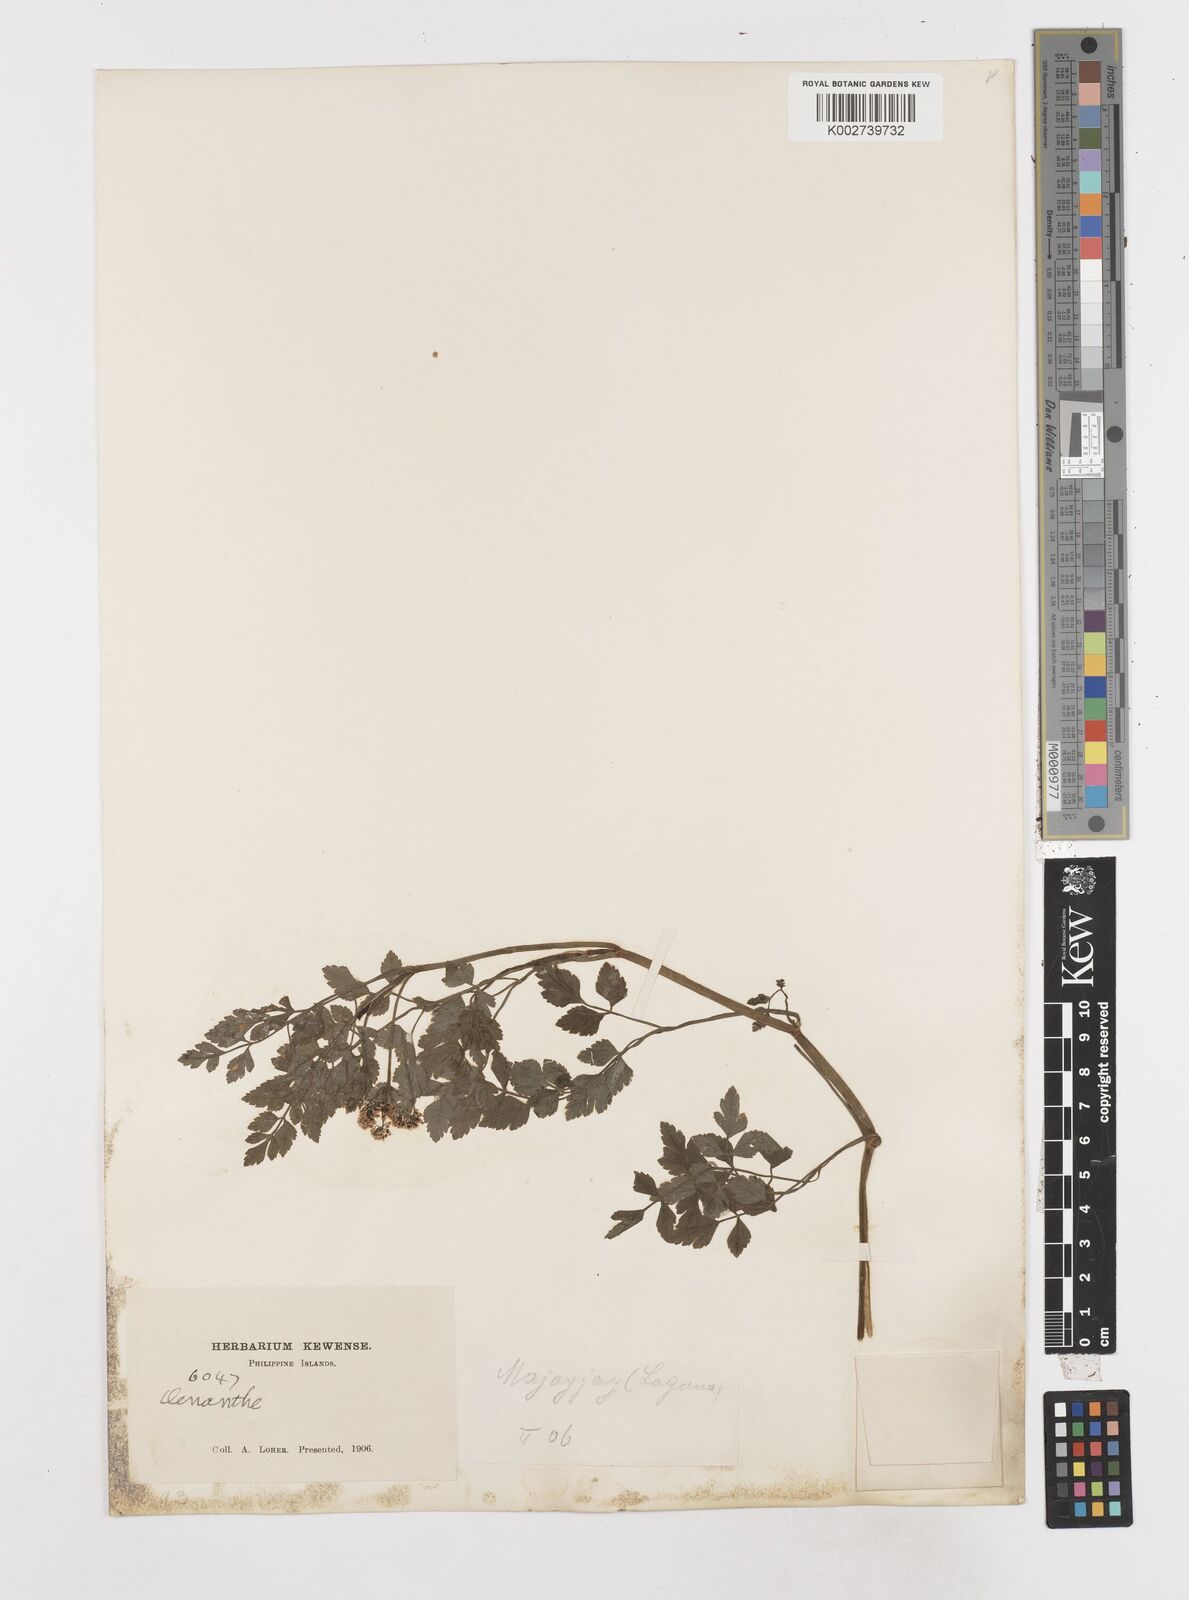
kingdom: Plantae
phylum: Tracheophyta
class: Magnoliopsida
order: Apiales
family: Apiaceae
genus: Oenanthe
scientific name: Oenanthe
